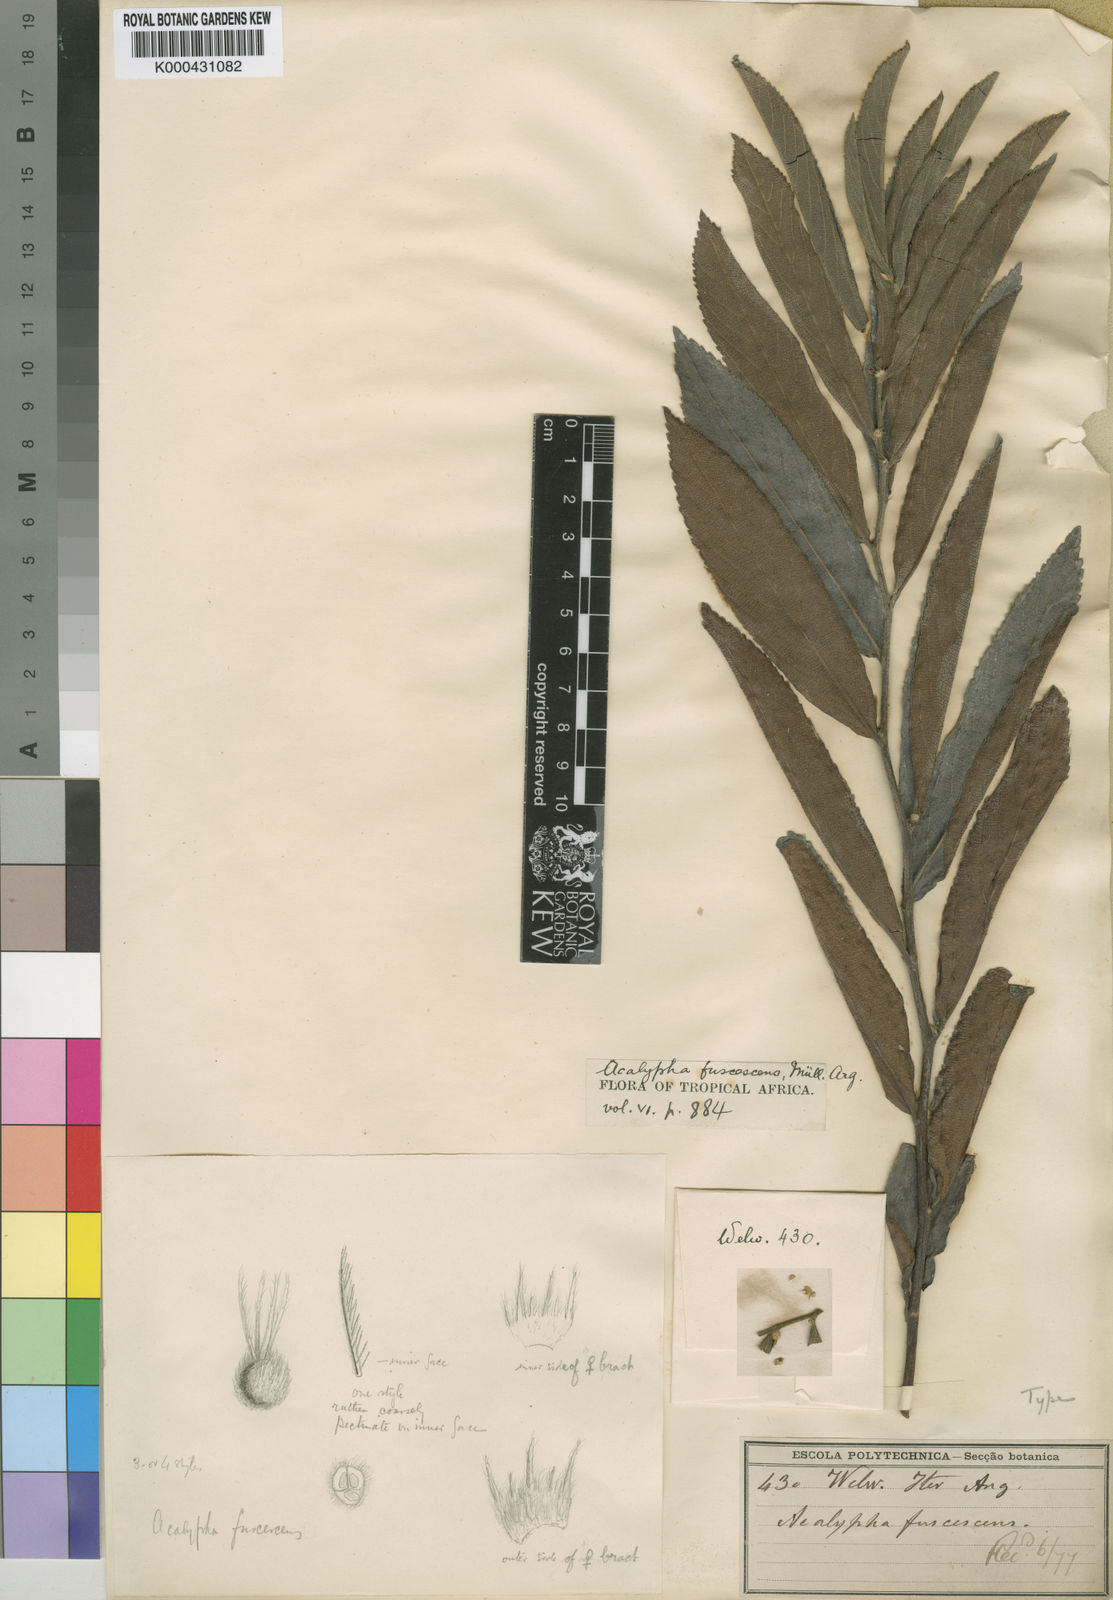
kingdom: Plantae
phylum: Tracheophyta
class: Magnoliopsida
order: Malpighiales
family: Euphorbiaceae
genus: Acalypha
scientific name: Acalypha
